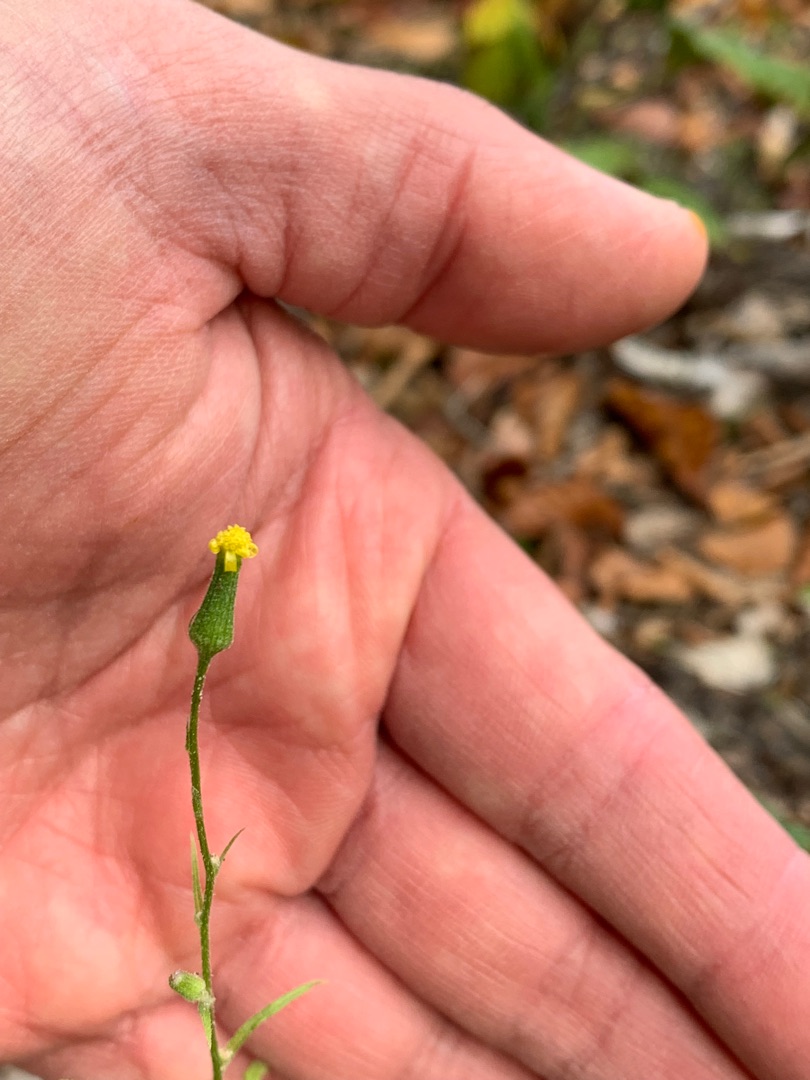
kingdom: Plantae
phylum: Tracheophyta
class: Magnoliopsida
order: Asterales
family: Asteraceae
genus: Senecio
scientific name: Senecio sylvaticus
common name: Skov-brandbæger
